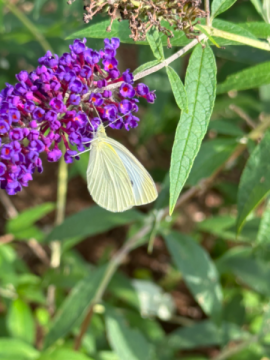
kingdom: Animalia
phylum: Arthropoda
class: Insecta
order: Lepidoptera
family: Pieridae
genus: Pieris
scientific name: Pieris rapae
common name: Cabbage White
